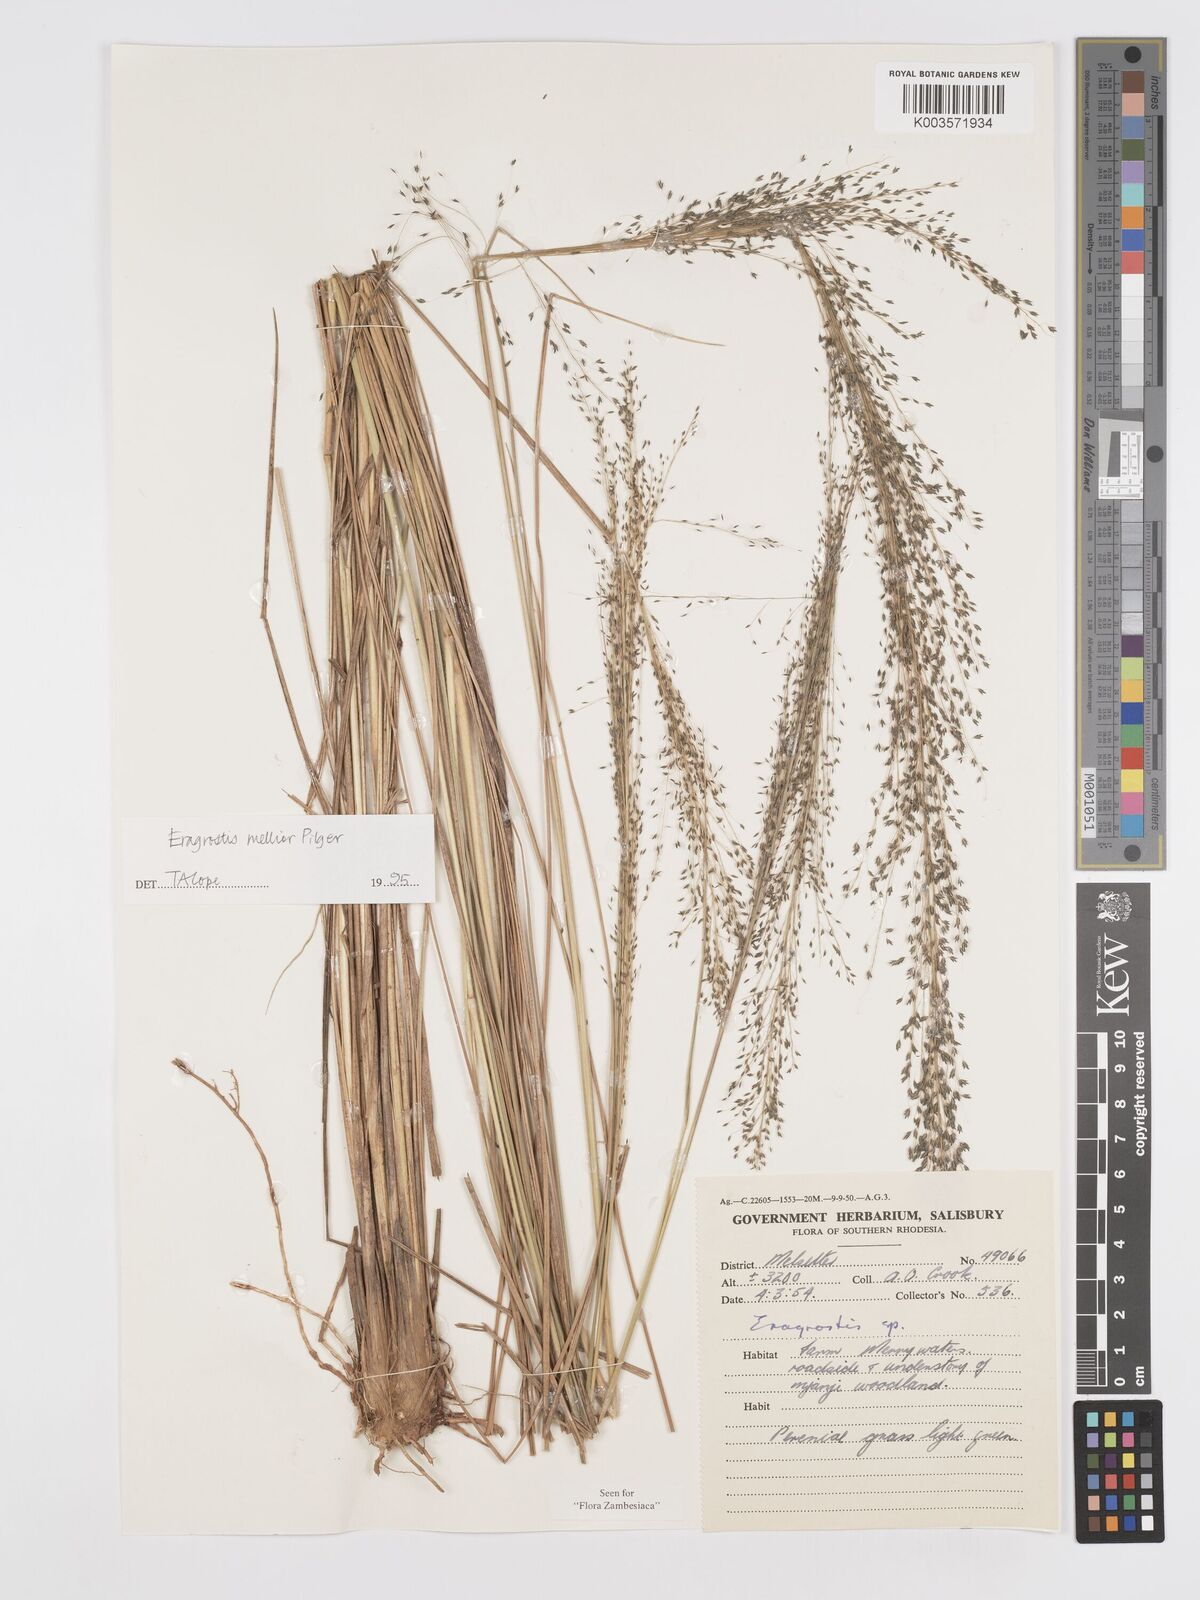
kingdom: Plantae
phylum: Tracheophyta
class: Liliopsida
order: Poales
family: Poaceae
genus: Eragrostis
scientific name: Eragrostis mollior
